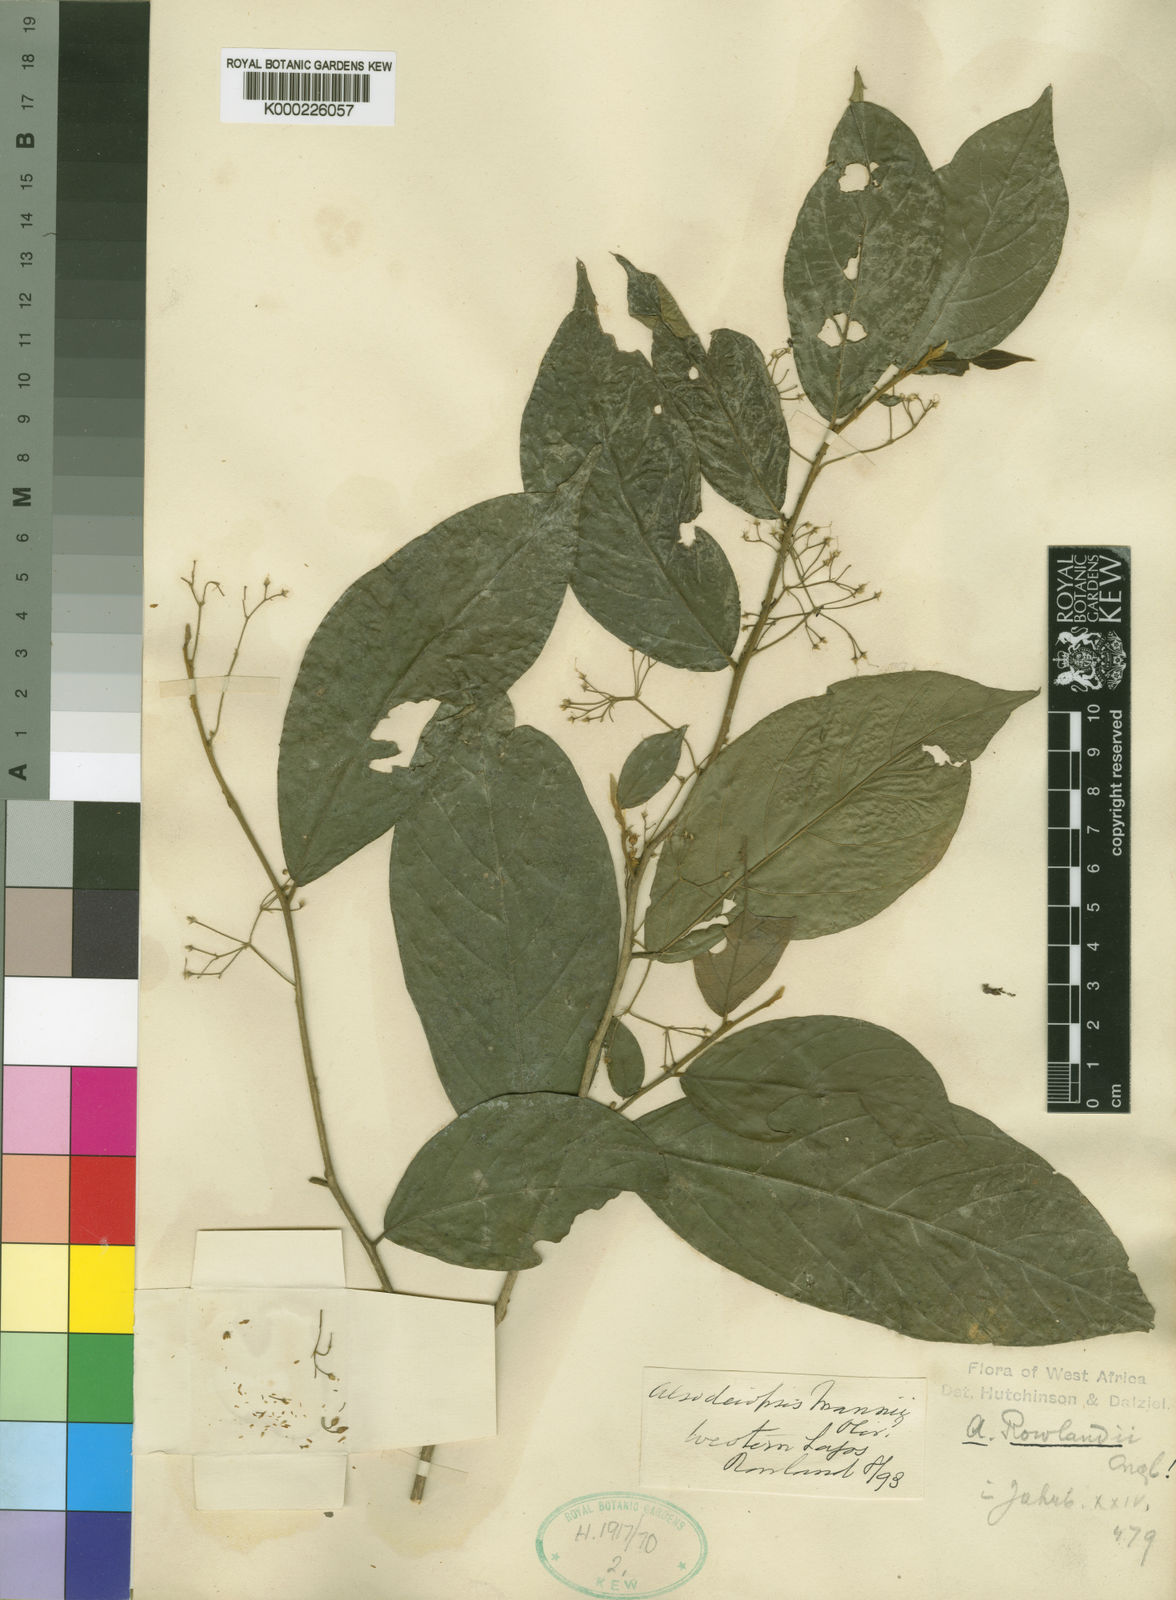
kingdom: Plantae
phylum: Tracheophyta
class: Magnoliopsida
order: Icacinales
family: Icacinaceae
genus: Alsodeiopsis
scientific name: Alsodeiopsis rowlandii
